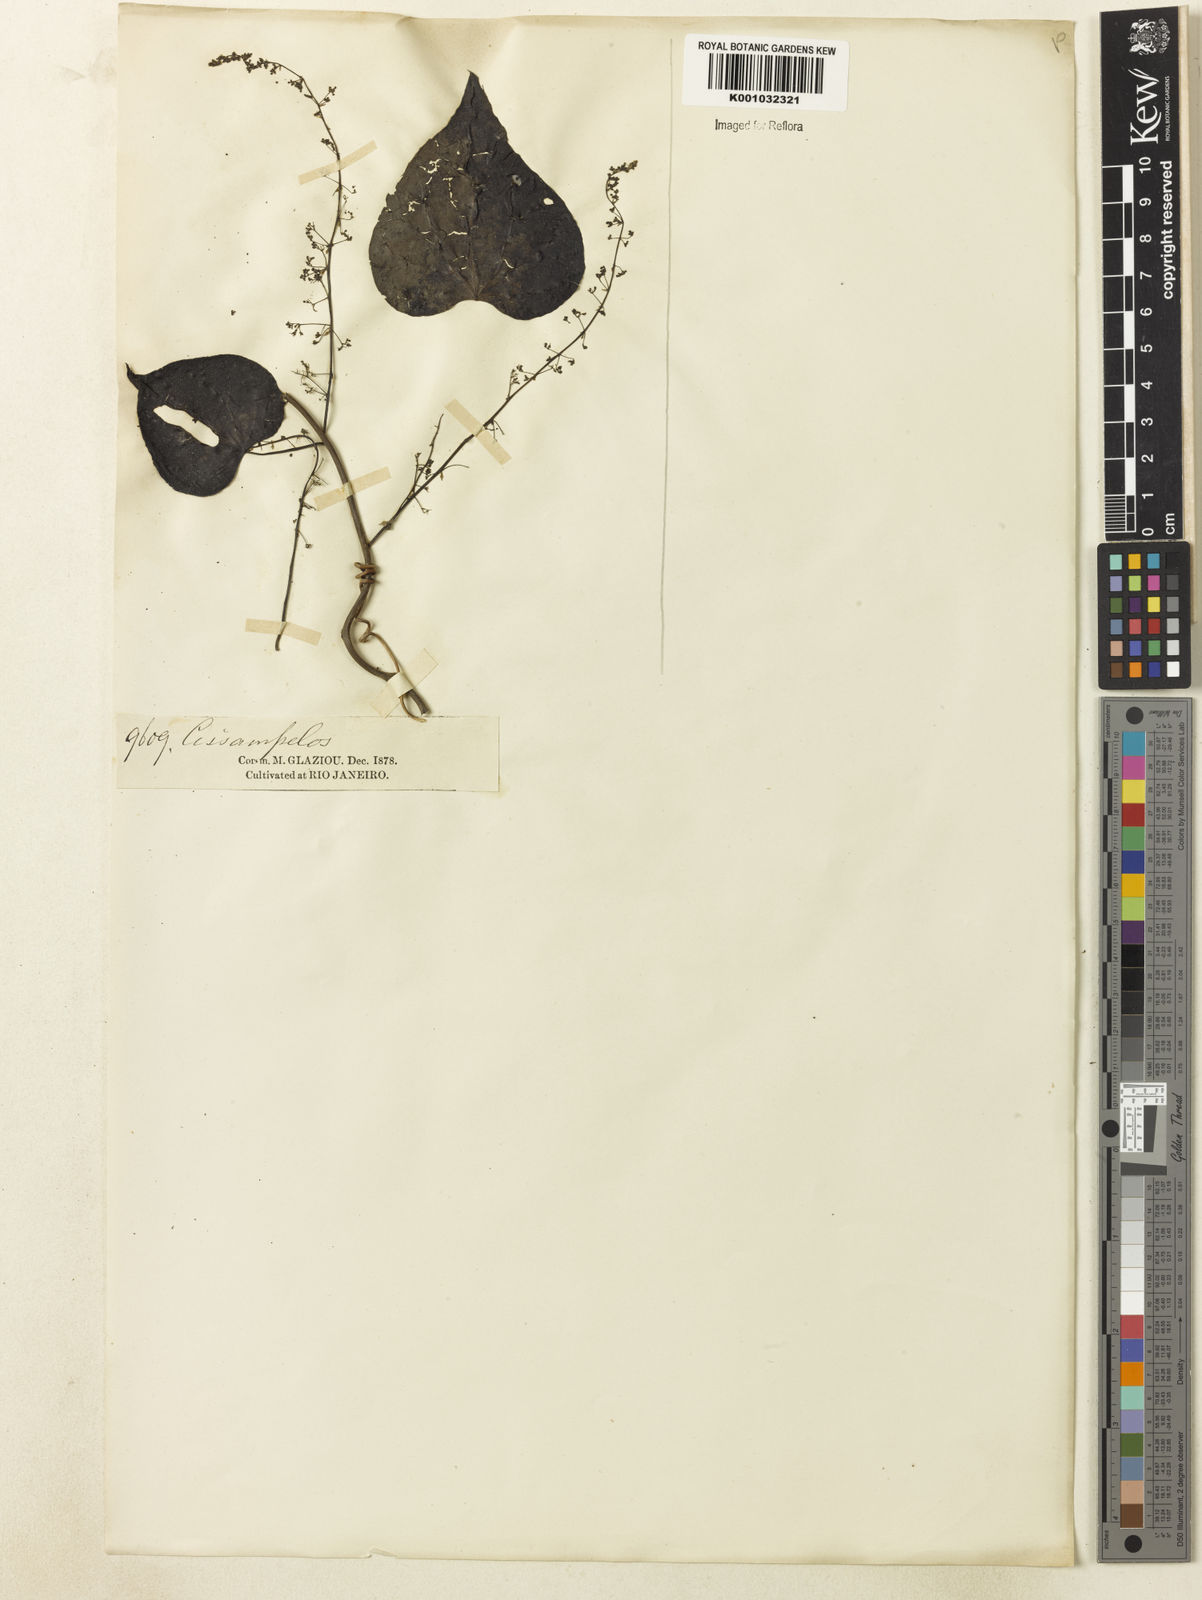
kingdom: Plantae
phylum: Tracheophyta
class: Magnoliopsida
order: Ranunculales
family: Menispermaceae
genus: Cissampelos
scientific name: Cissampelos
